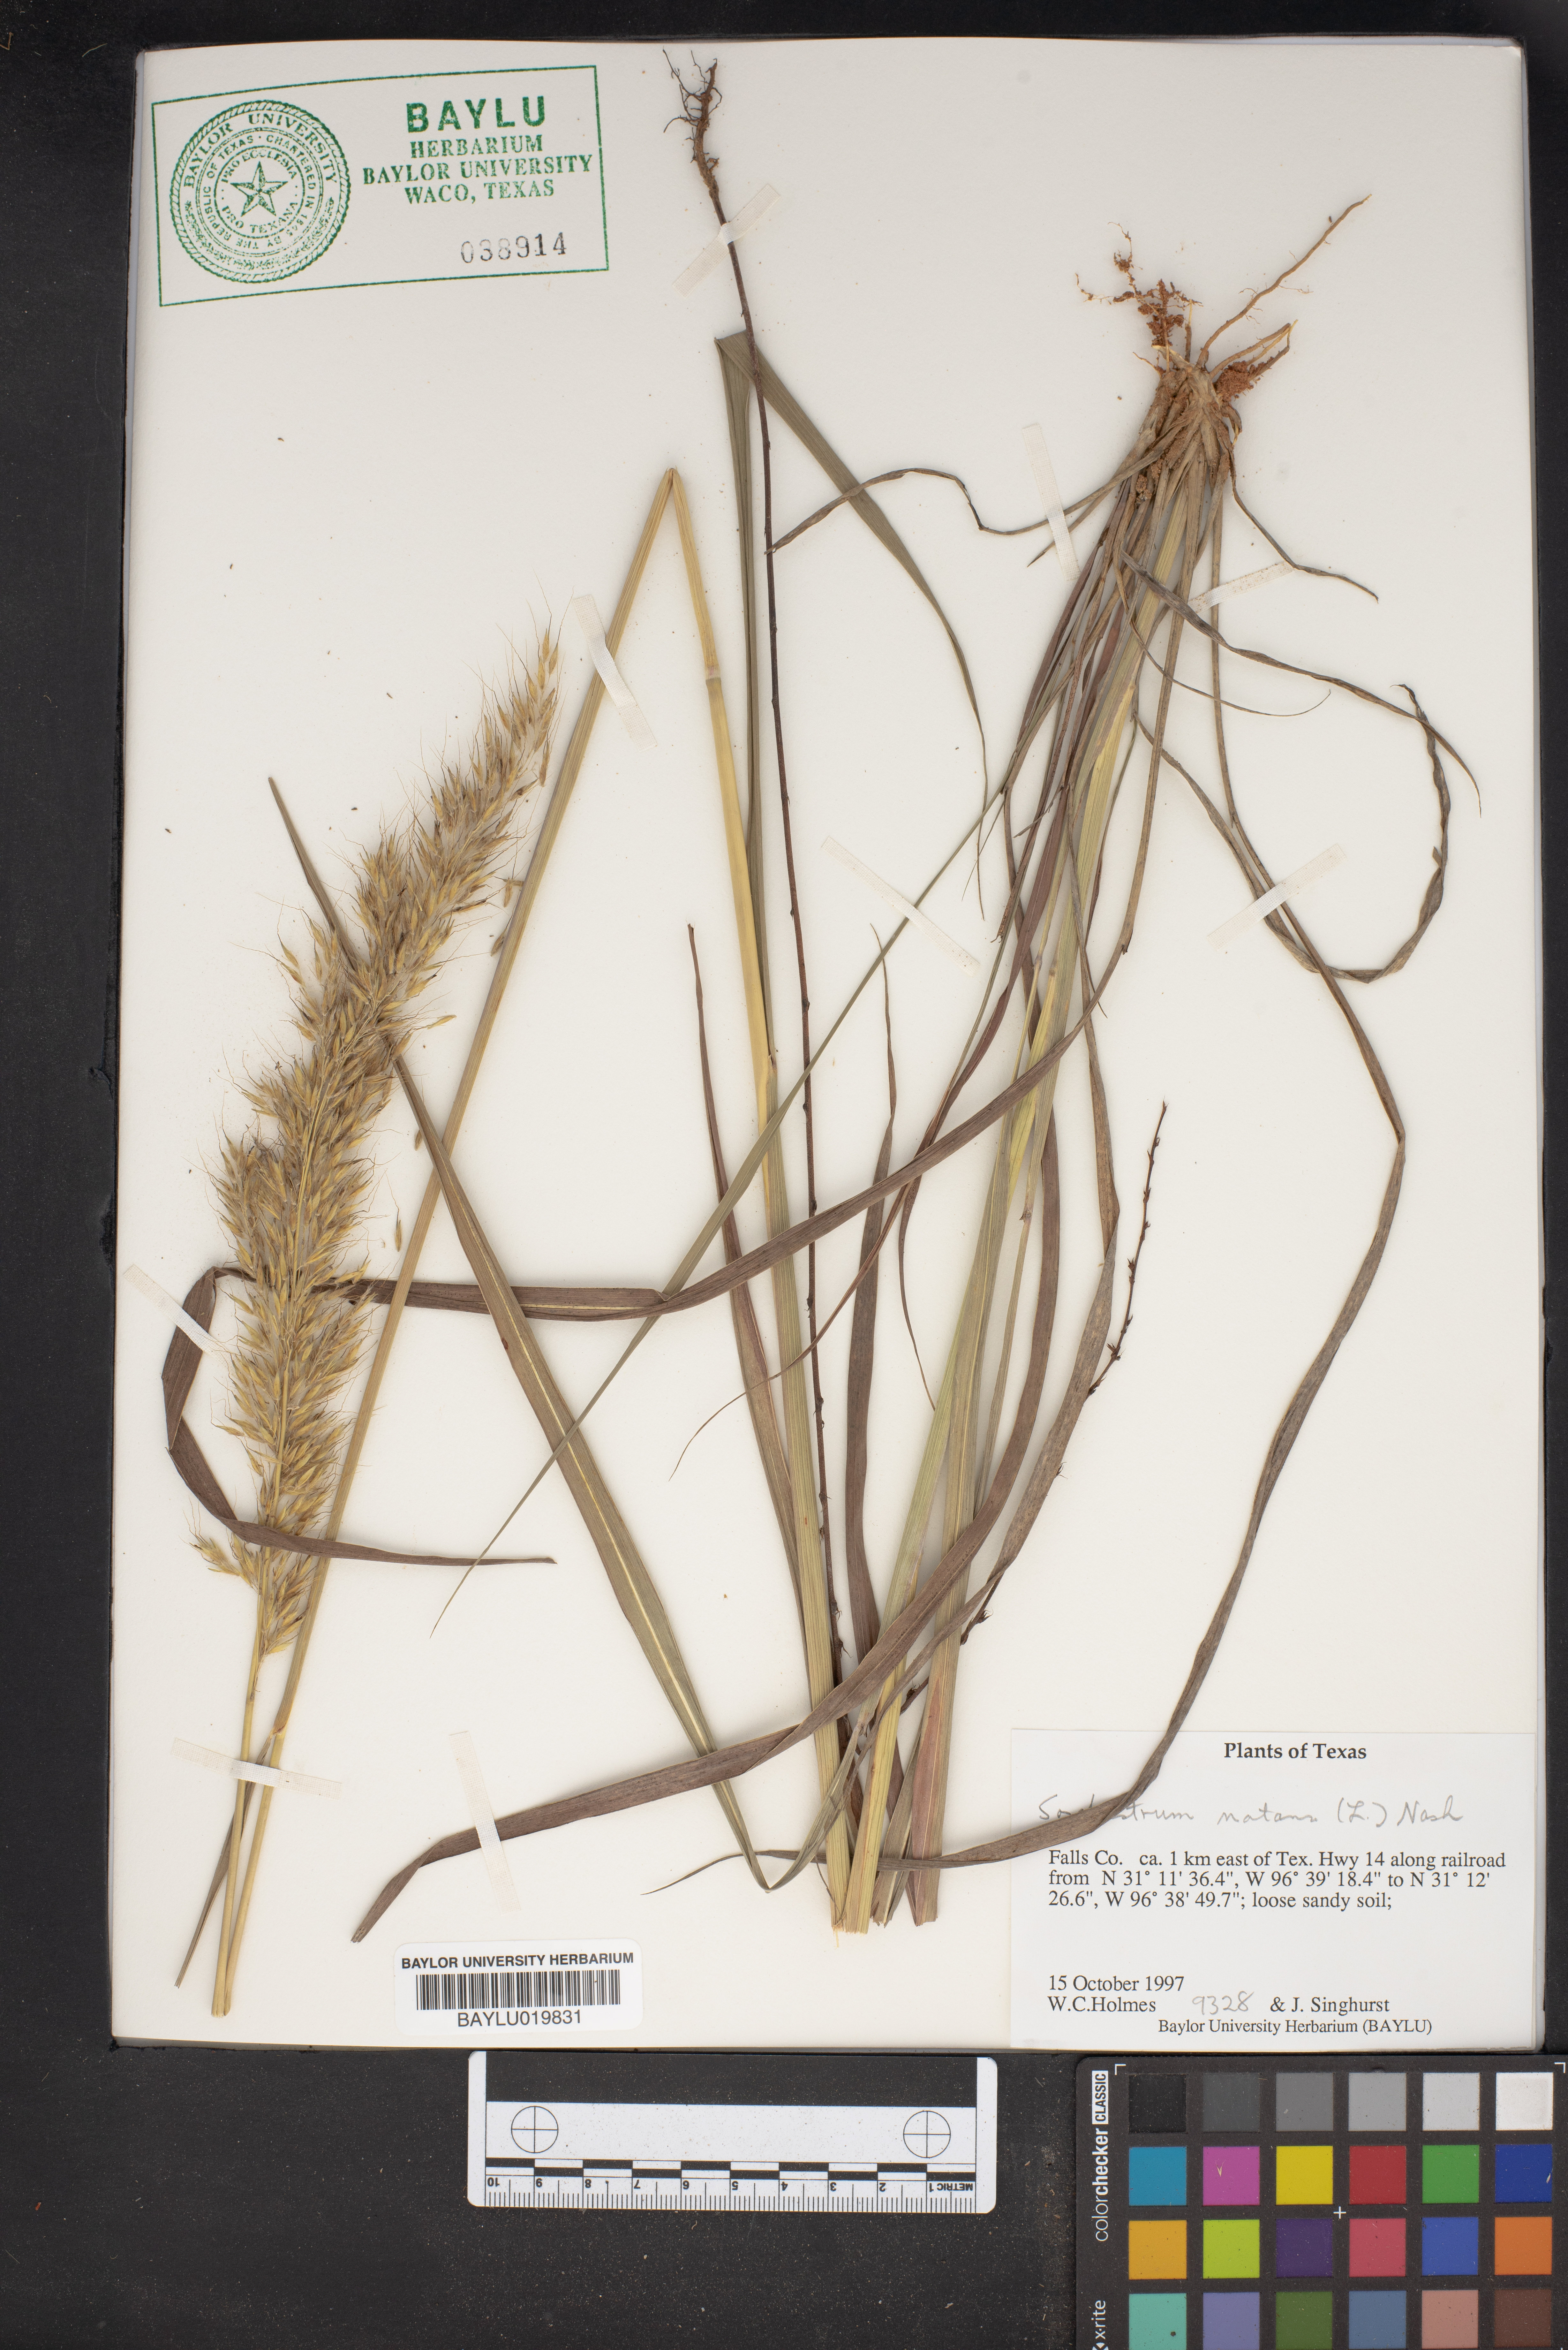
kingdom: Plantae
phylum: Tracheophyta
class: Liliopsida
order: Poales
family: Poaceae
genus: Sorghastrum
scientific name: Sorghastrum nutans
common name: Indian grass
